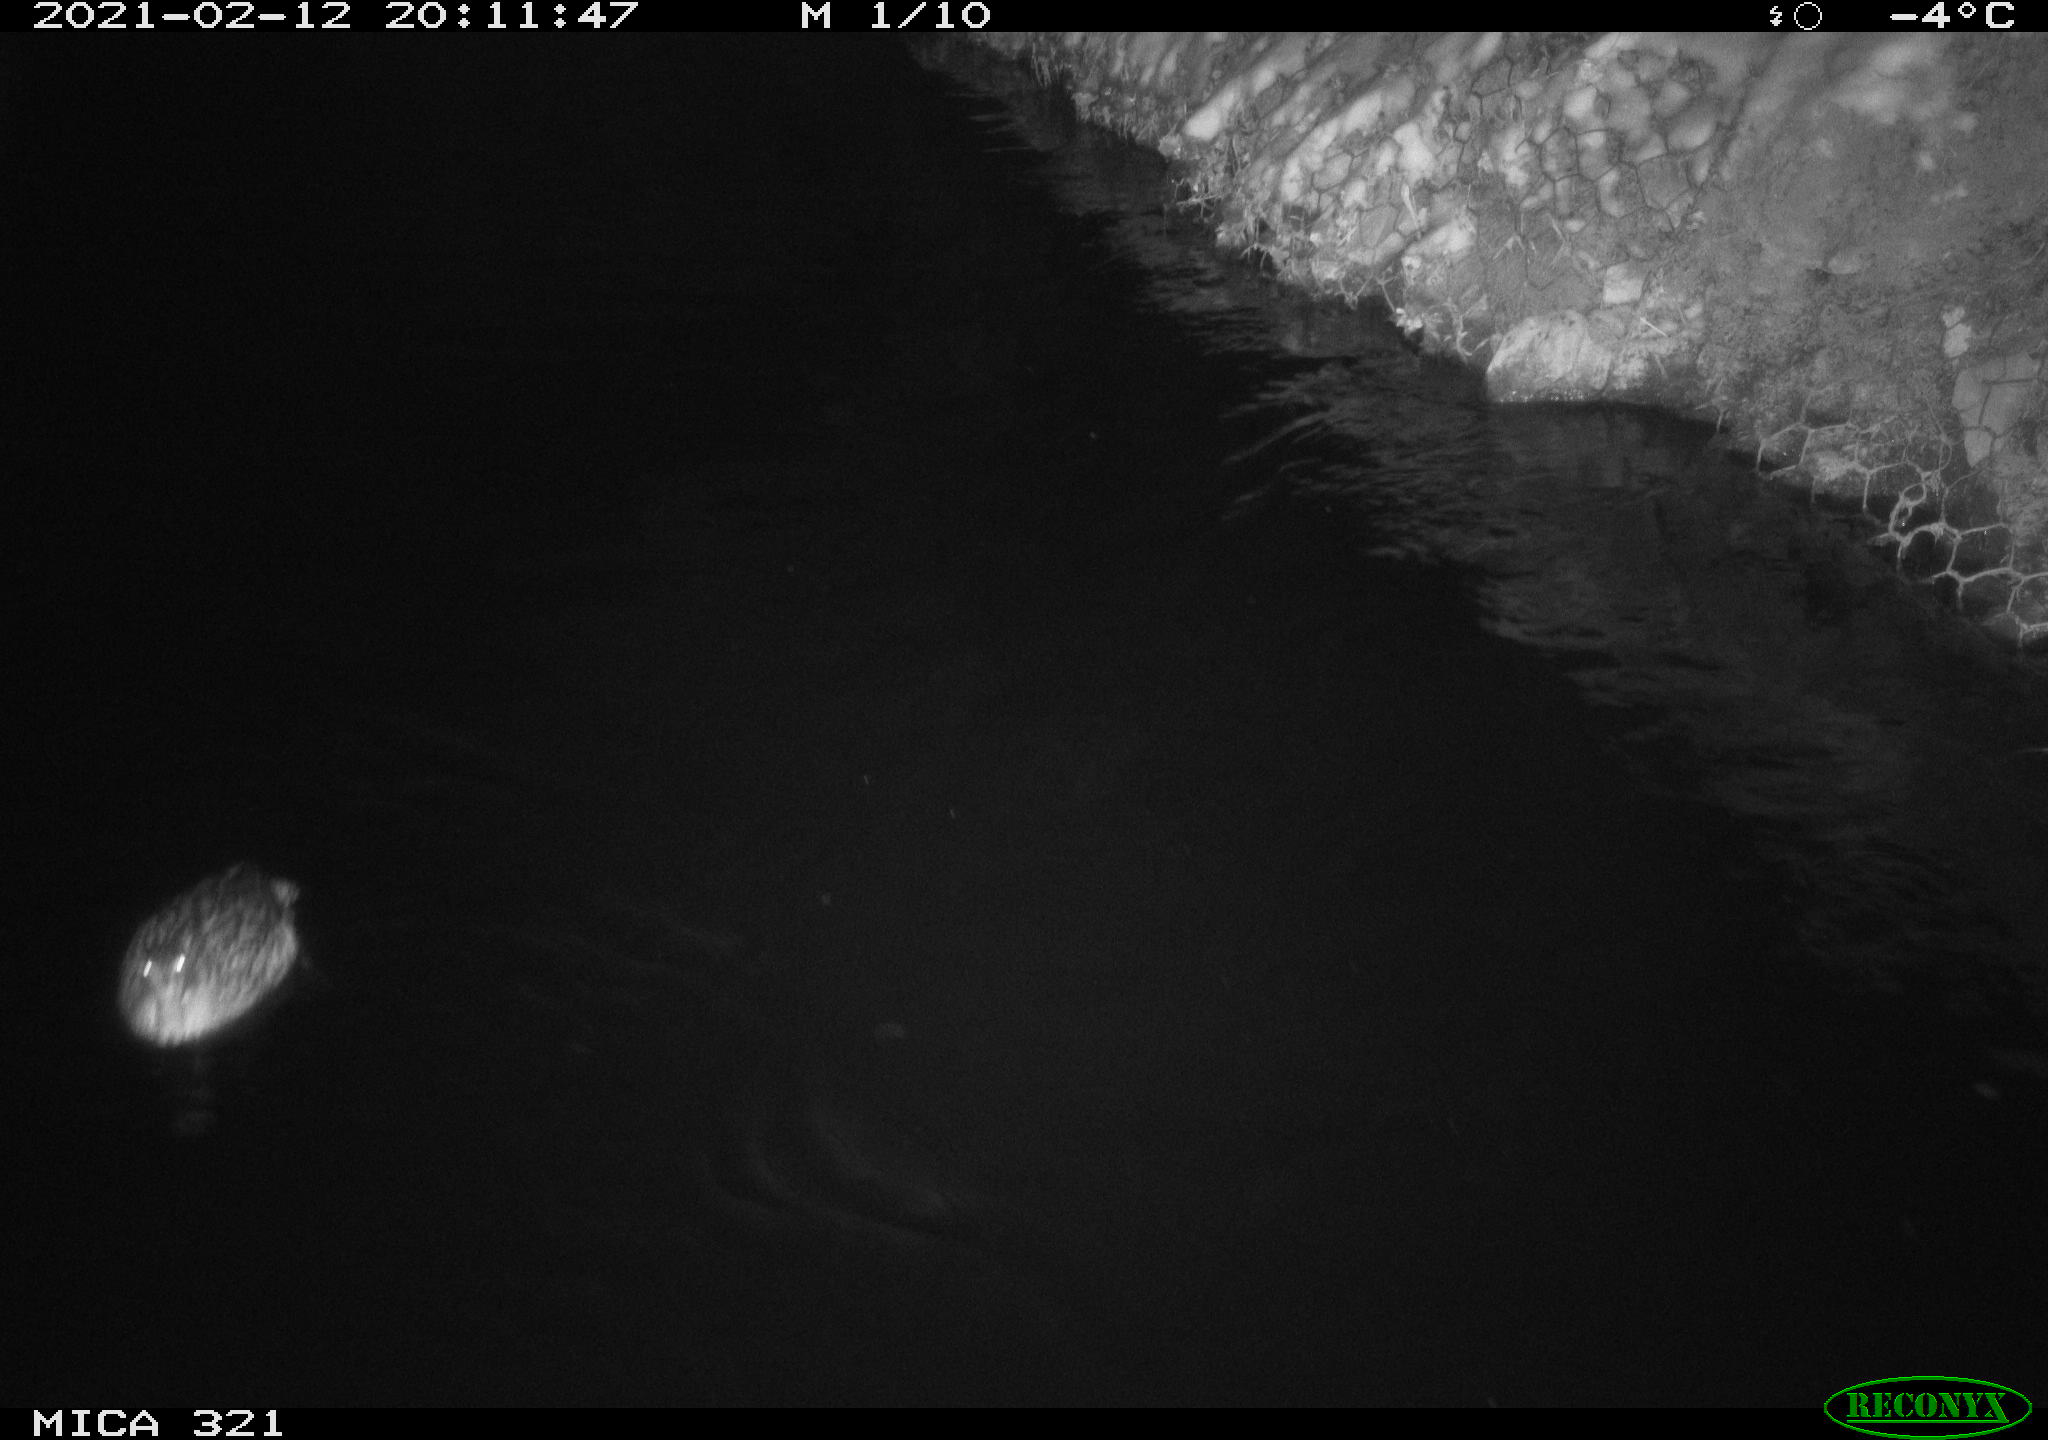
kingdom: Animalia
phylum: Chordata
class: Aves
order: Anseriformes
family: Anatidae
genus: Anas
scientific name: Anas platyrhynchos
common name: Mallard
